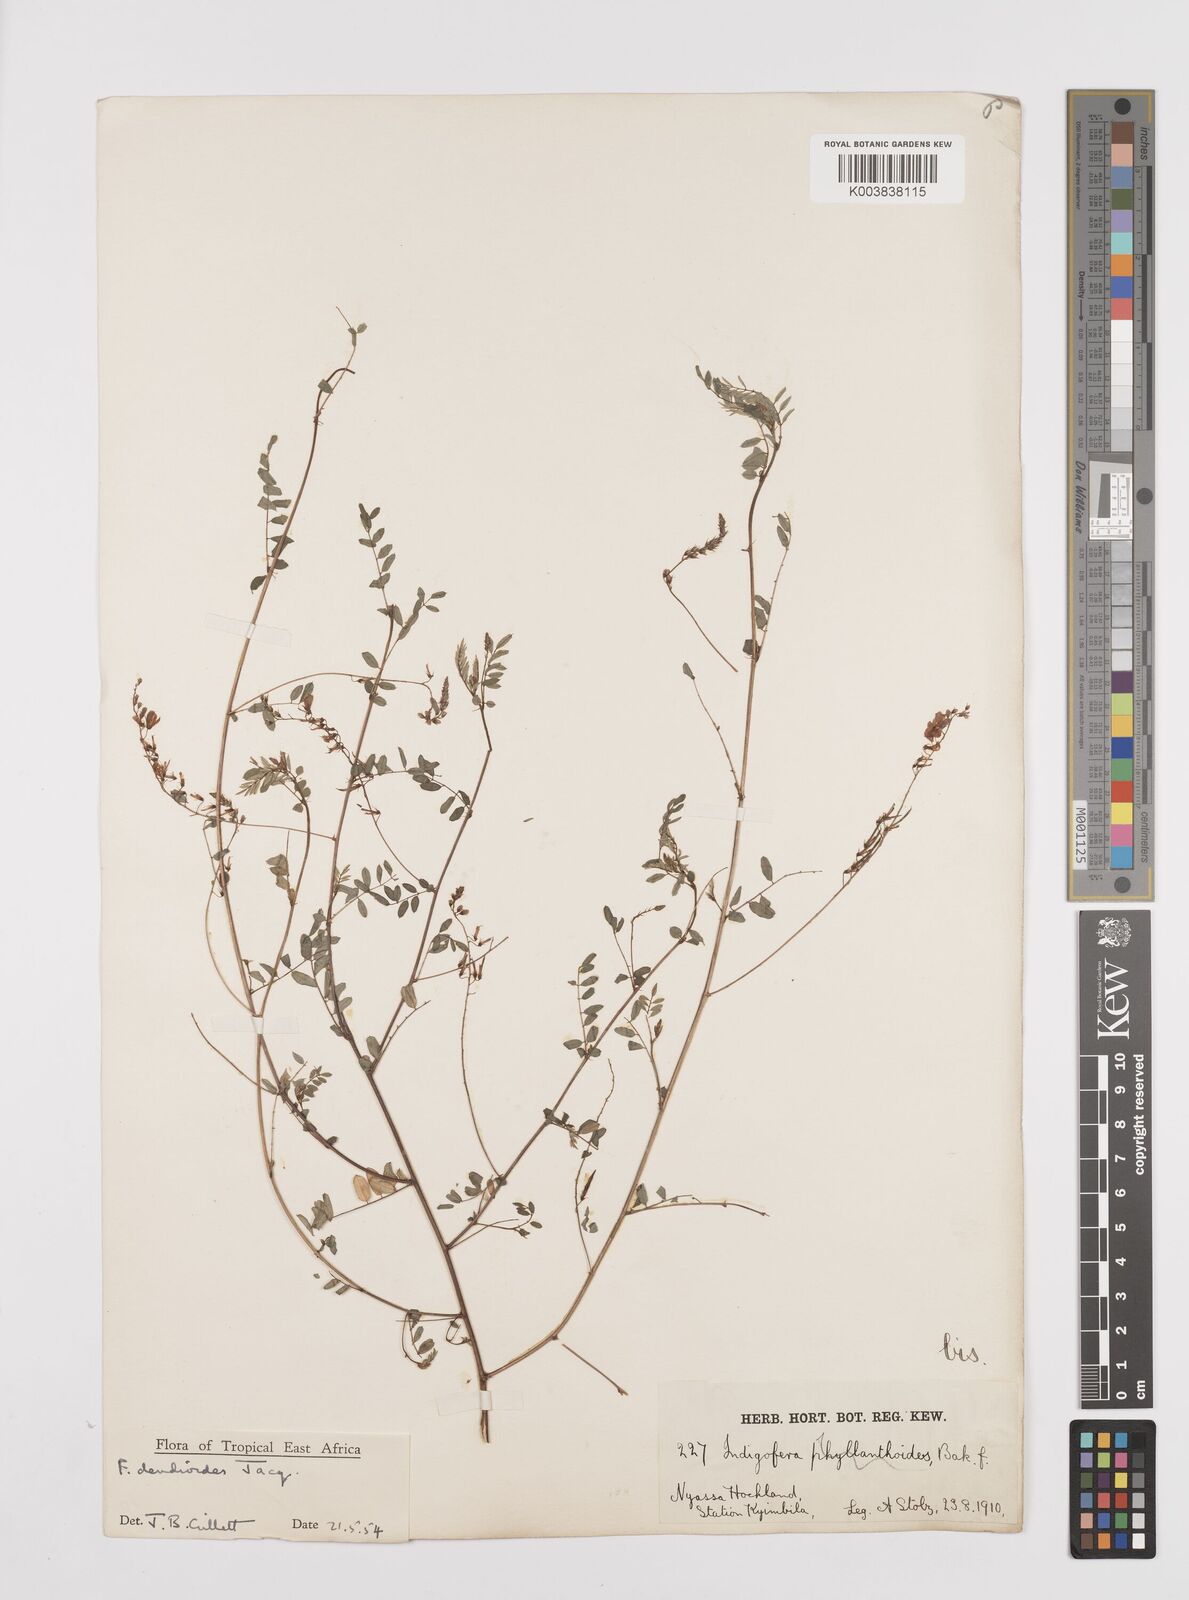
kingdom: Plantae
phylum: Tracheophyta
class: Magnoliopsida
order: Fabales
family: Fabaceae
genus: Indigofera
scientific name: Indigofera dendroides
